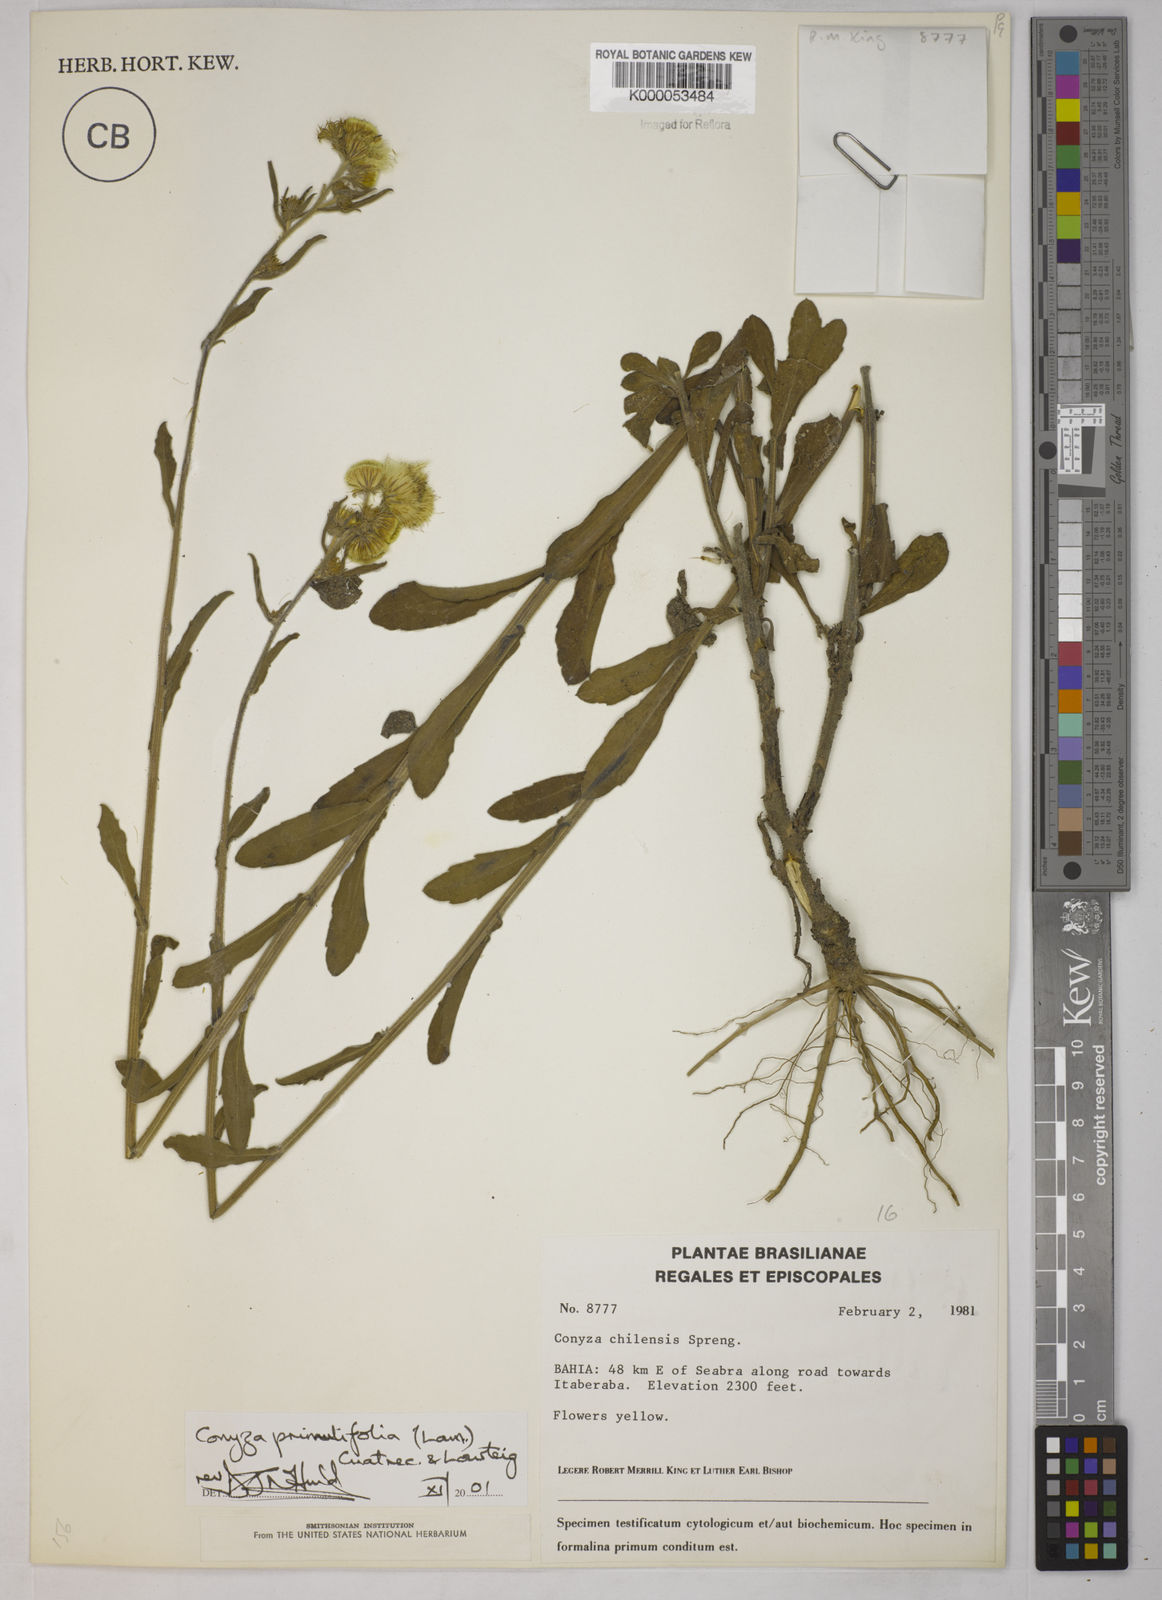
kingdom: Plantae
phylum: Tracheophyta
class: Magnoliopsida
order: Asterales
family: Asteraceae
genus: Erigeron
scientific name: Erigeron primulifolius
